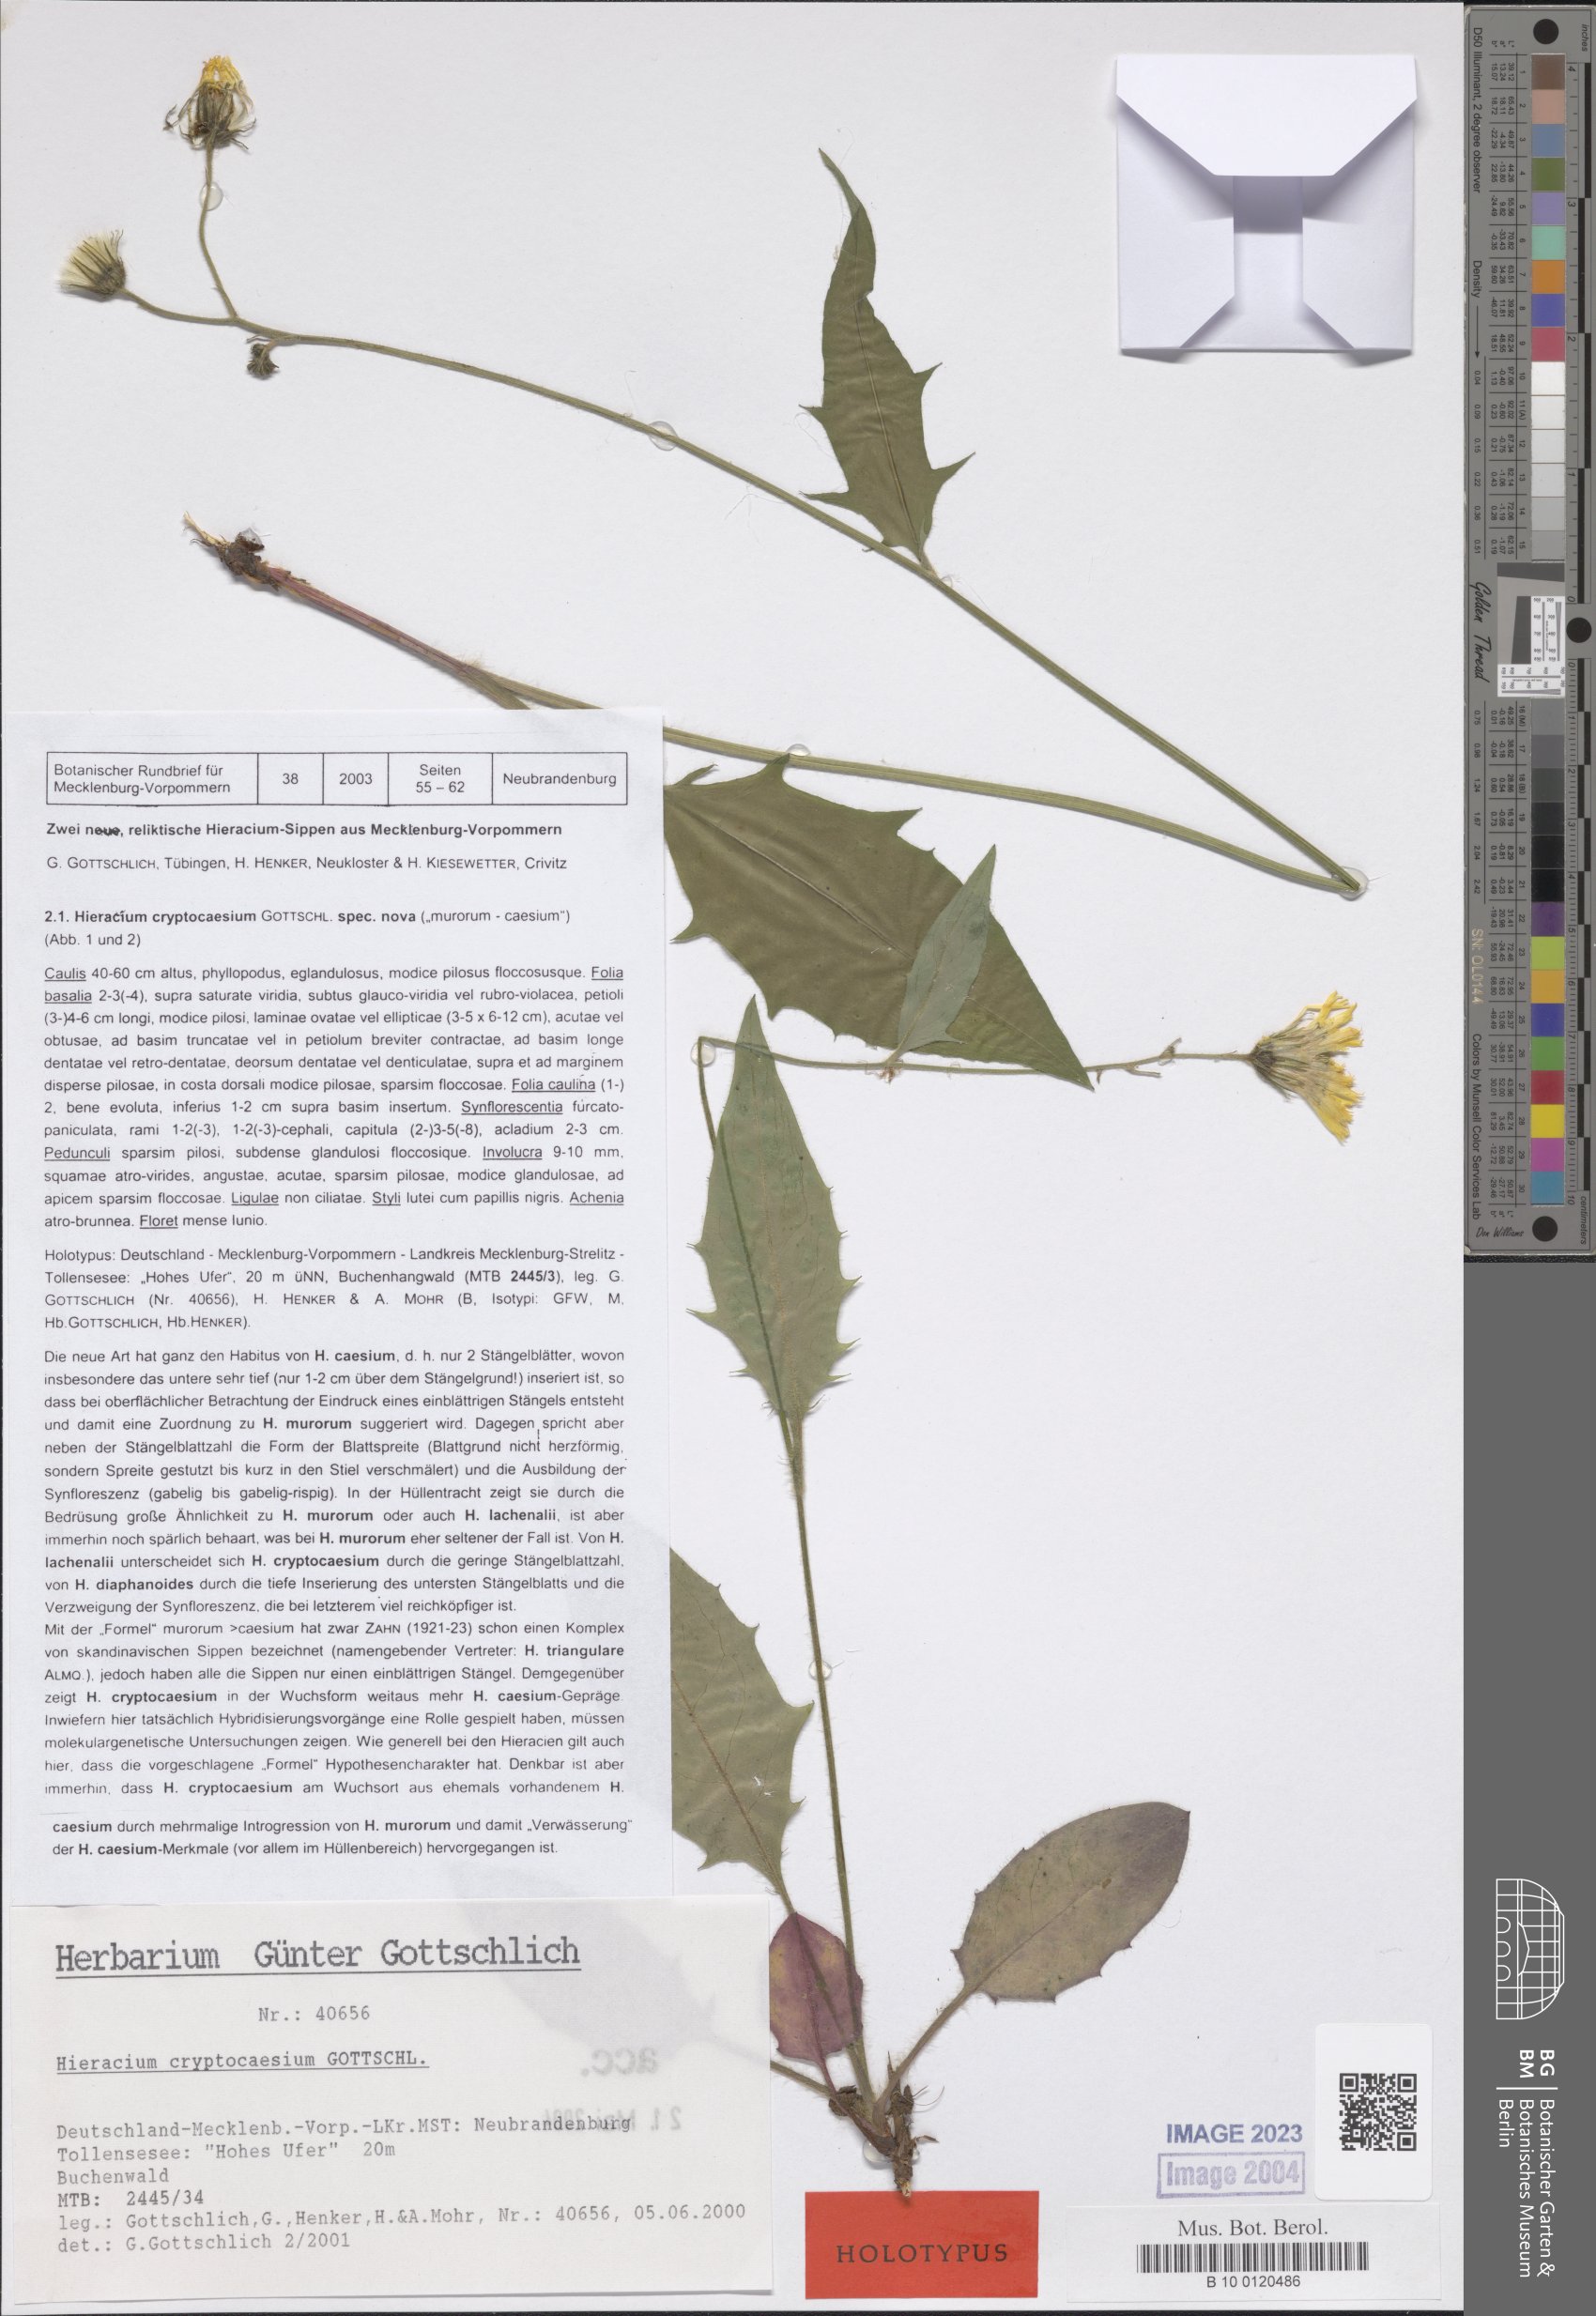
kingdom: Plantae
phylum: Tracheophyta
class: Magnoliopsida
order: Asterales
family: Asteraceae
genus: Hieracium
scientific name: Hieracium cryptocaesium
